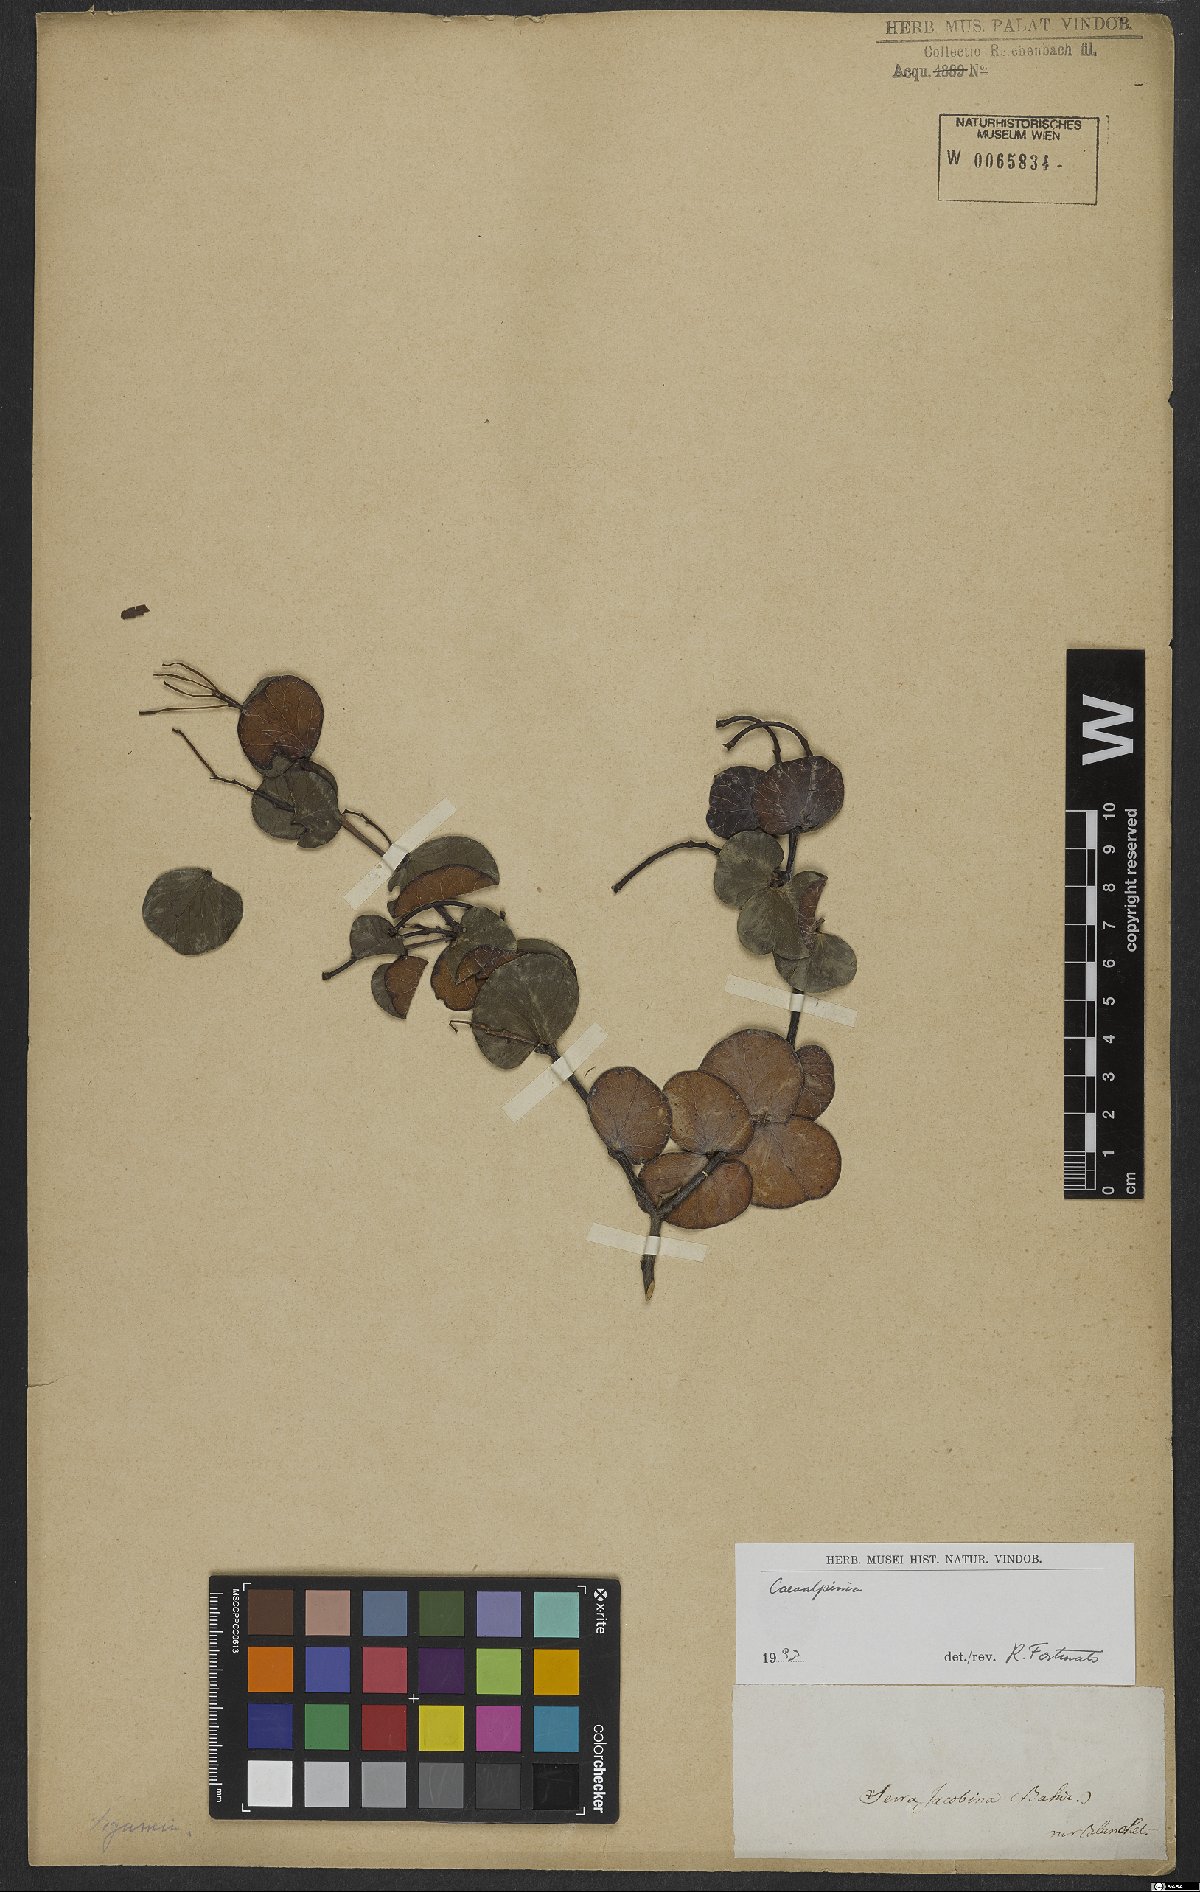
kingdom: Plantae
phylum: Tracheophyta
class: Magnoliopsida
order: Fabales
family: Fabaceae
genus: Caesalpinia
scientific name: Caesalpinia
